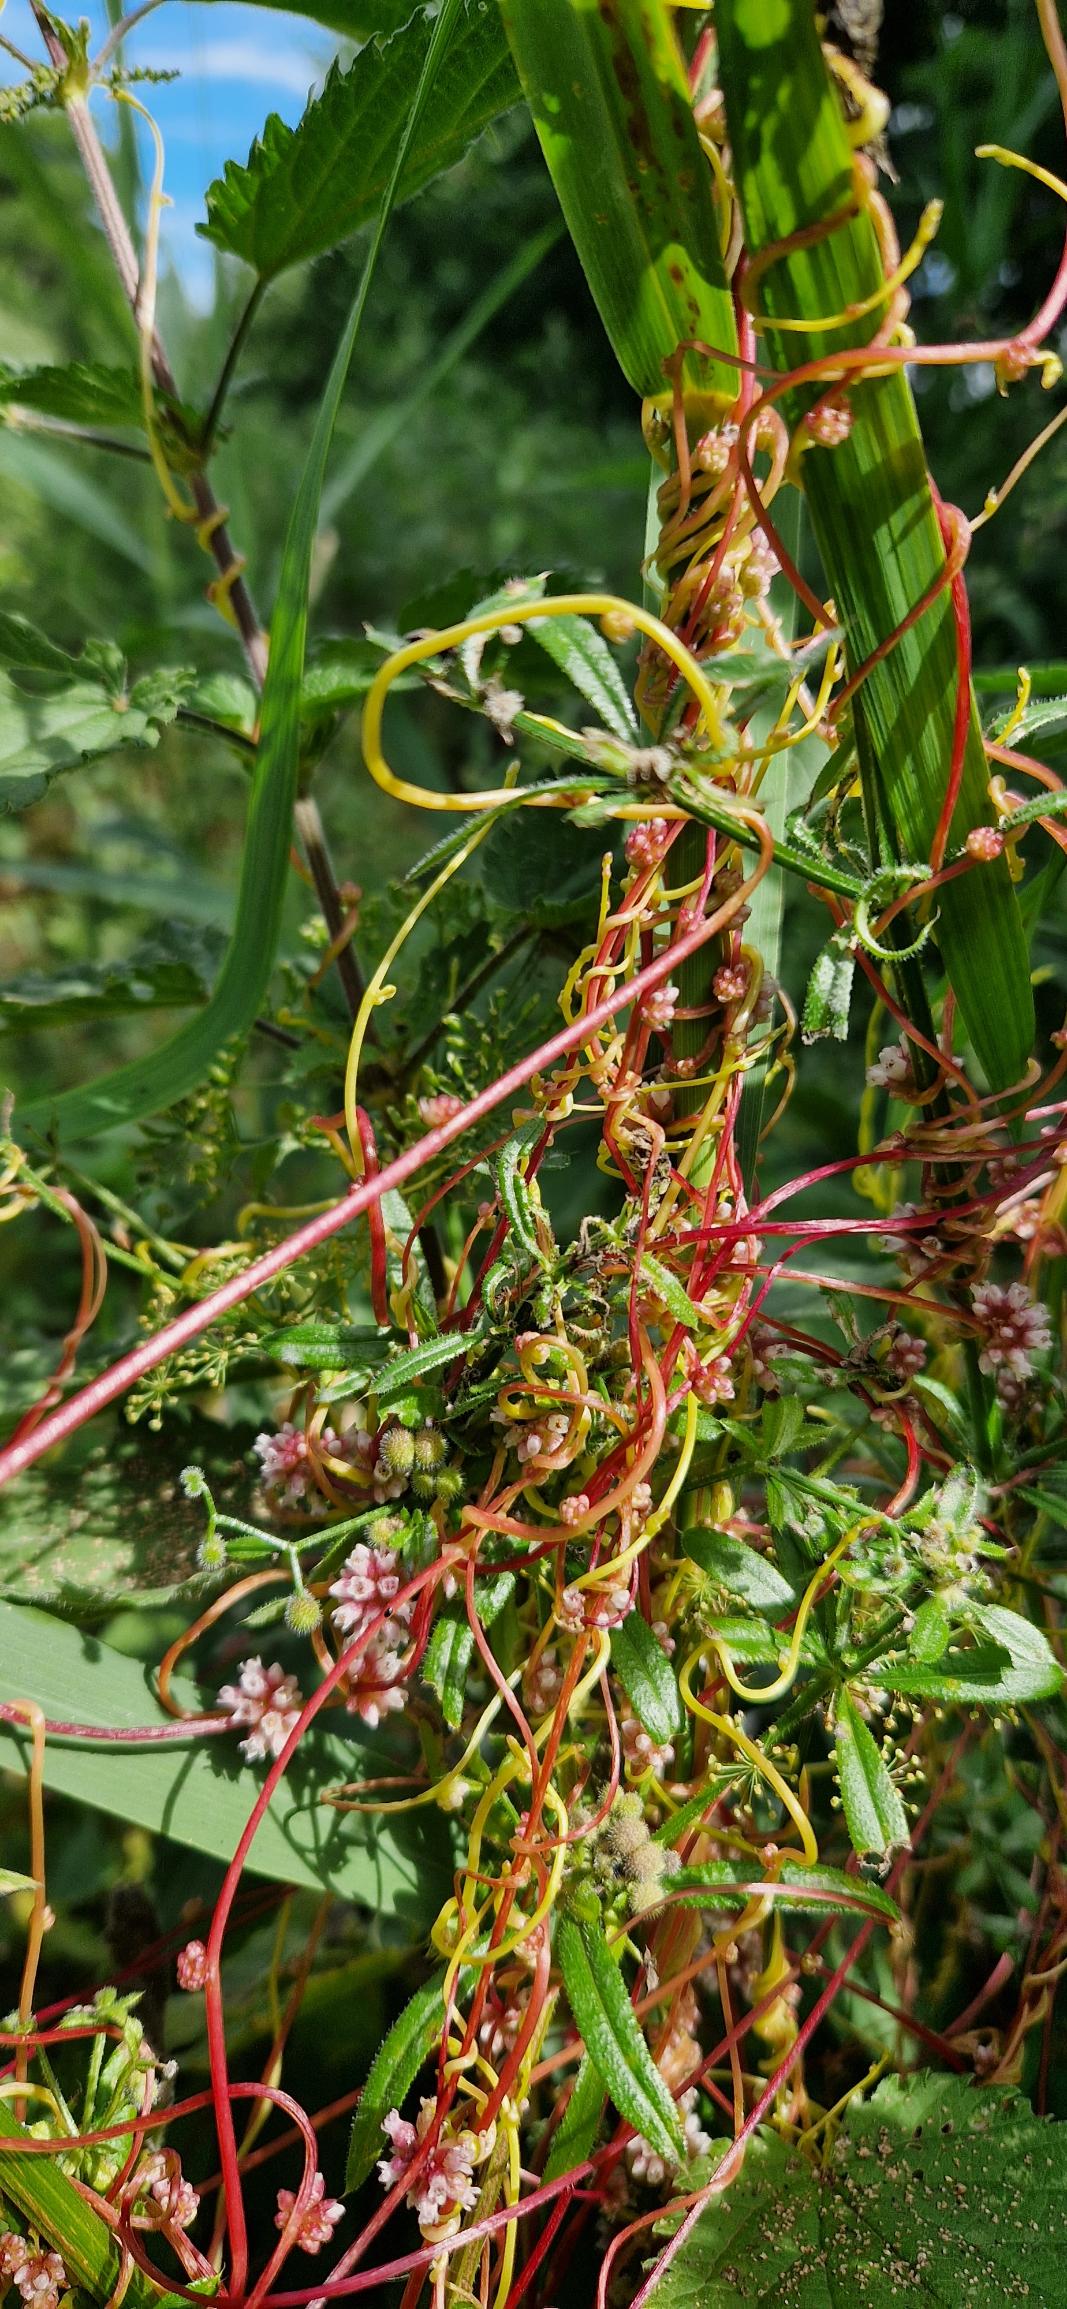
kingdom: Plantae
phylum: Tracheophyta
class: Magnoliopsida
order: Solanales
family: Convolvulaceae
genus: Cuscuta
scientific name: Cuscuta europaea
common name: Nælde-silke
